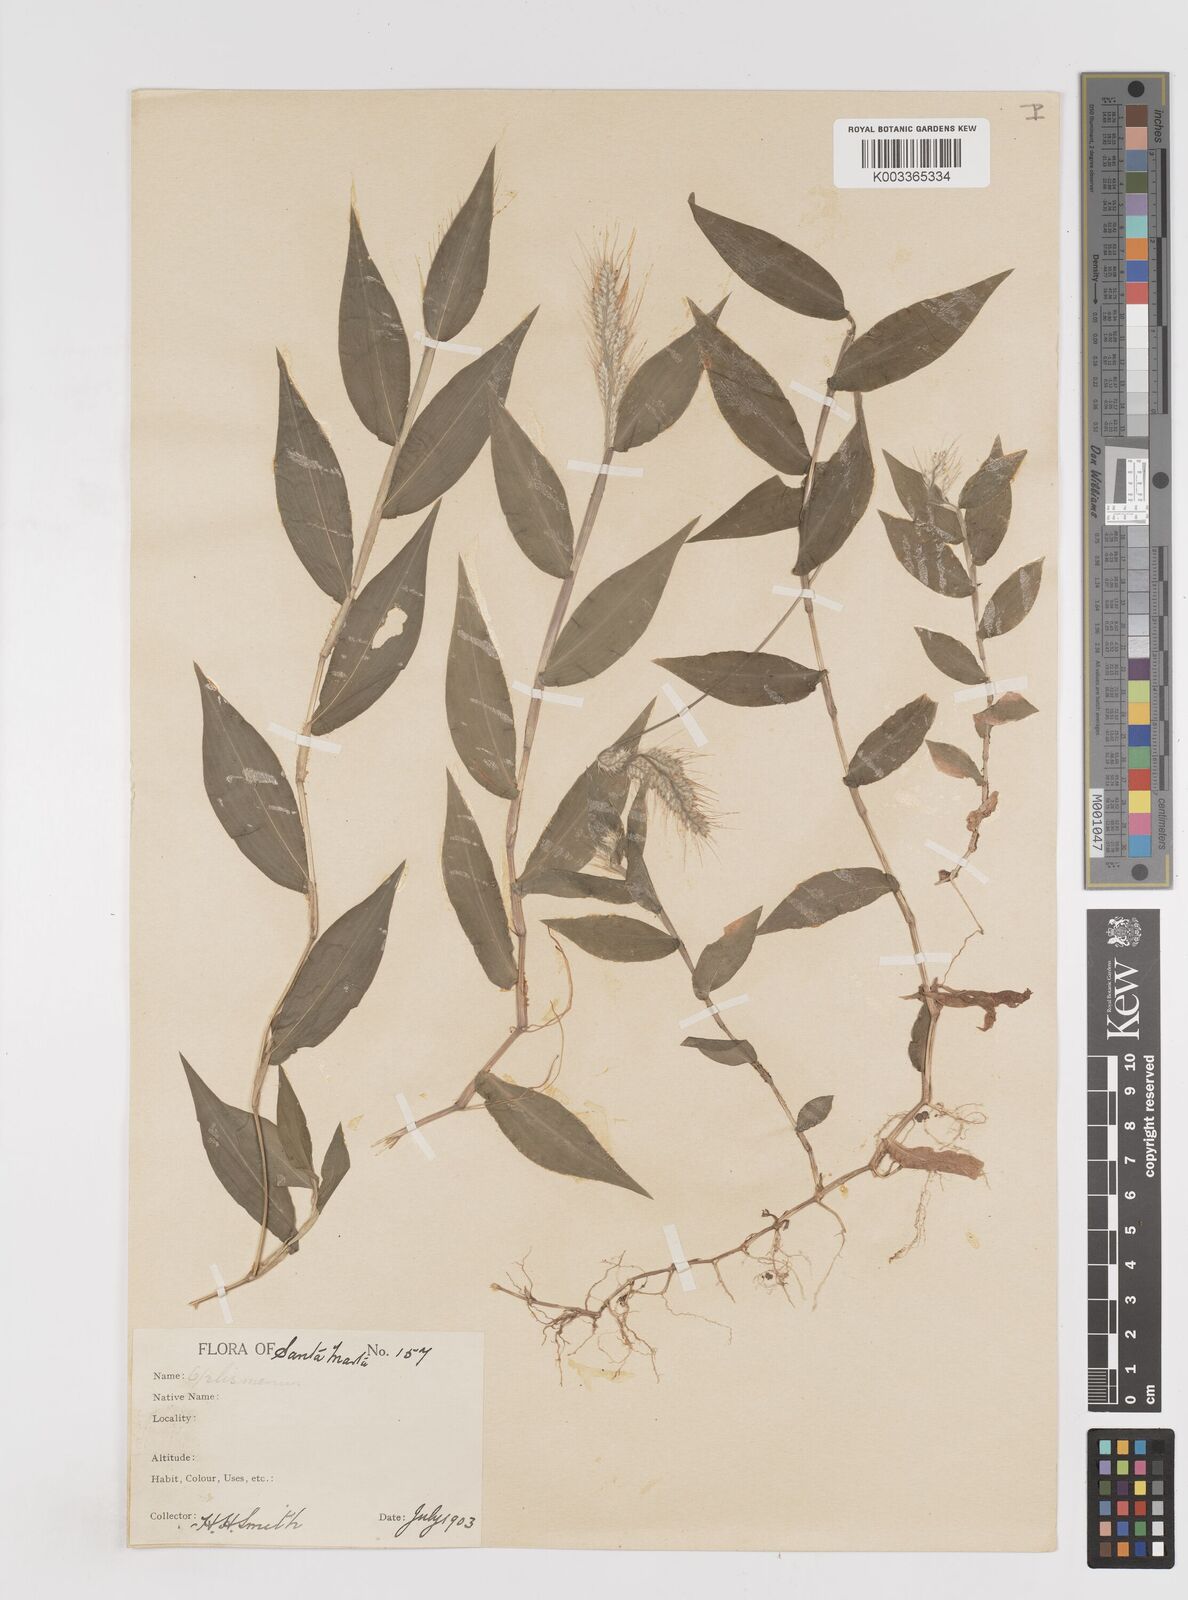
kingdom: Plantae
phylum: Tracheophyta
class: Liliopsida
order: Poales
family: Poaceae
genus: Oplismenus
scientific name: Oplismenus burmanni
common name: Burmann's basketgrass
